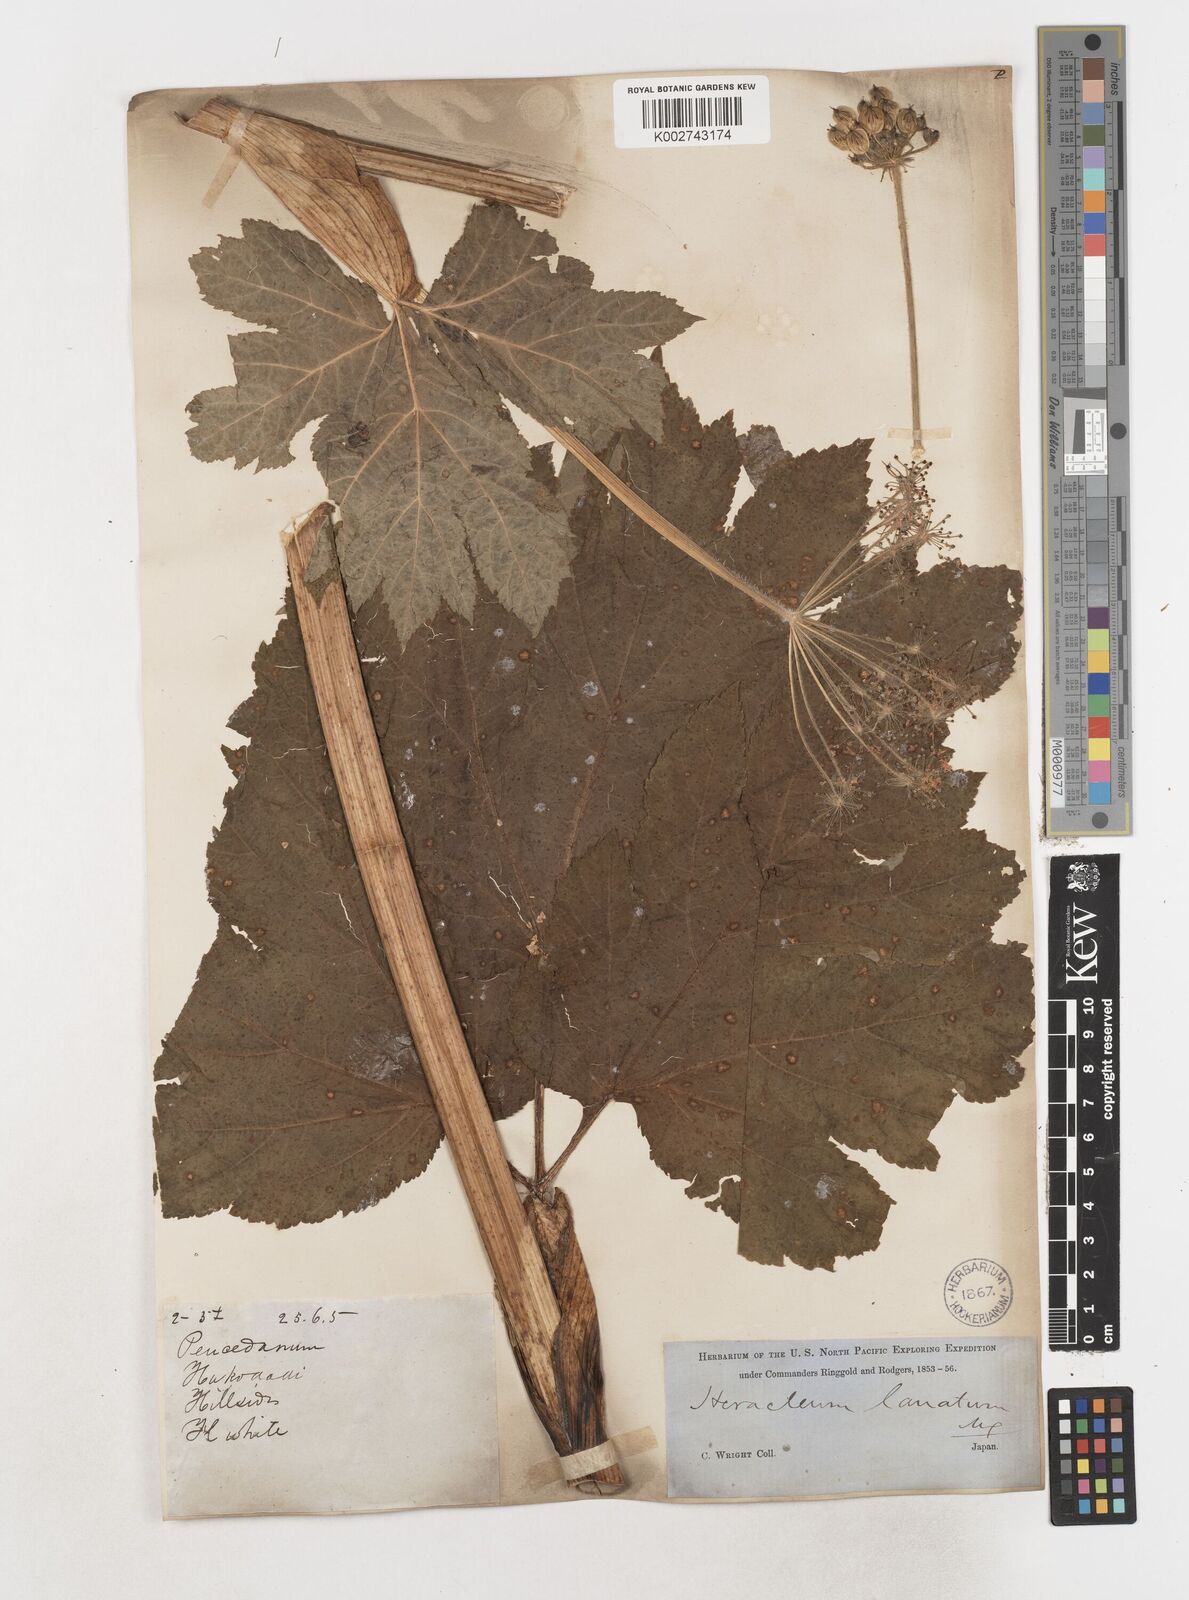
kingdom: Plantae
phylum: Tracheophyta
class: Magnoliopsida
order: Apiales
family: Apiaceae
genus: Heracleum
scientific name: Heracleum maximum
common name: American cow parsnip
